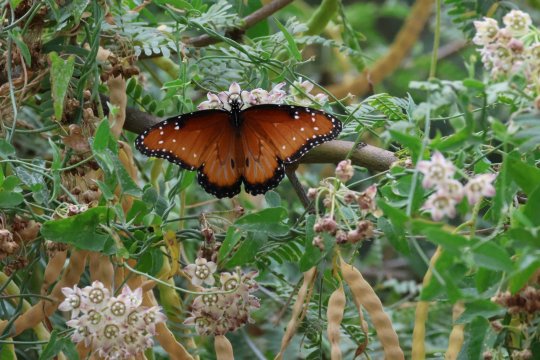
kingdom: Animalia
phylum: Arthropoda
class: Insecta
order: Lepidoptera
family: Nymphalidae
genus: Danaus
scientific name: Danaus gilippus
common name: Queen
